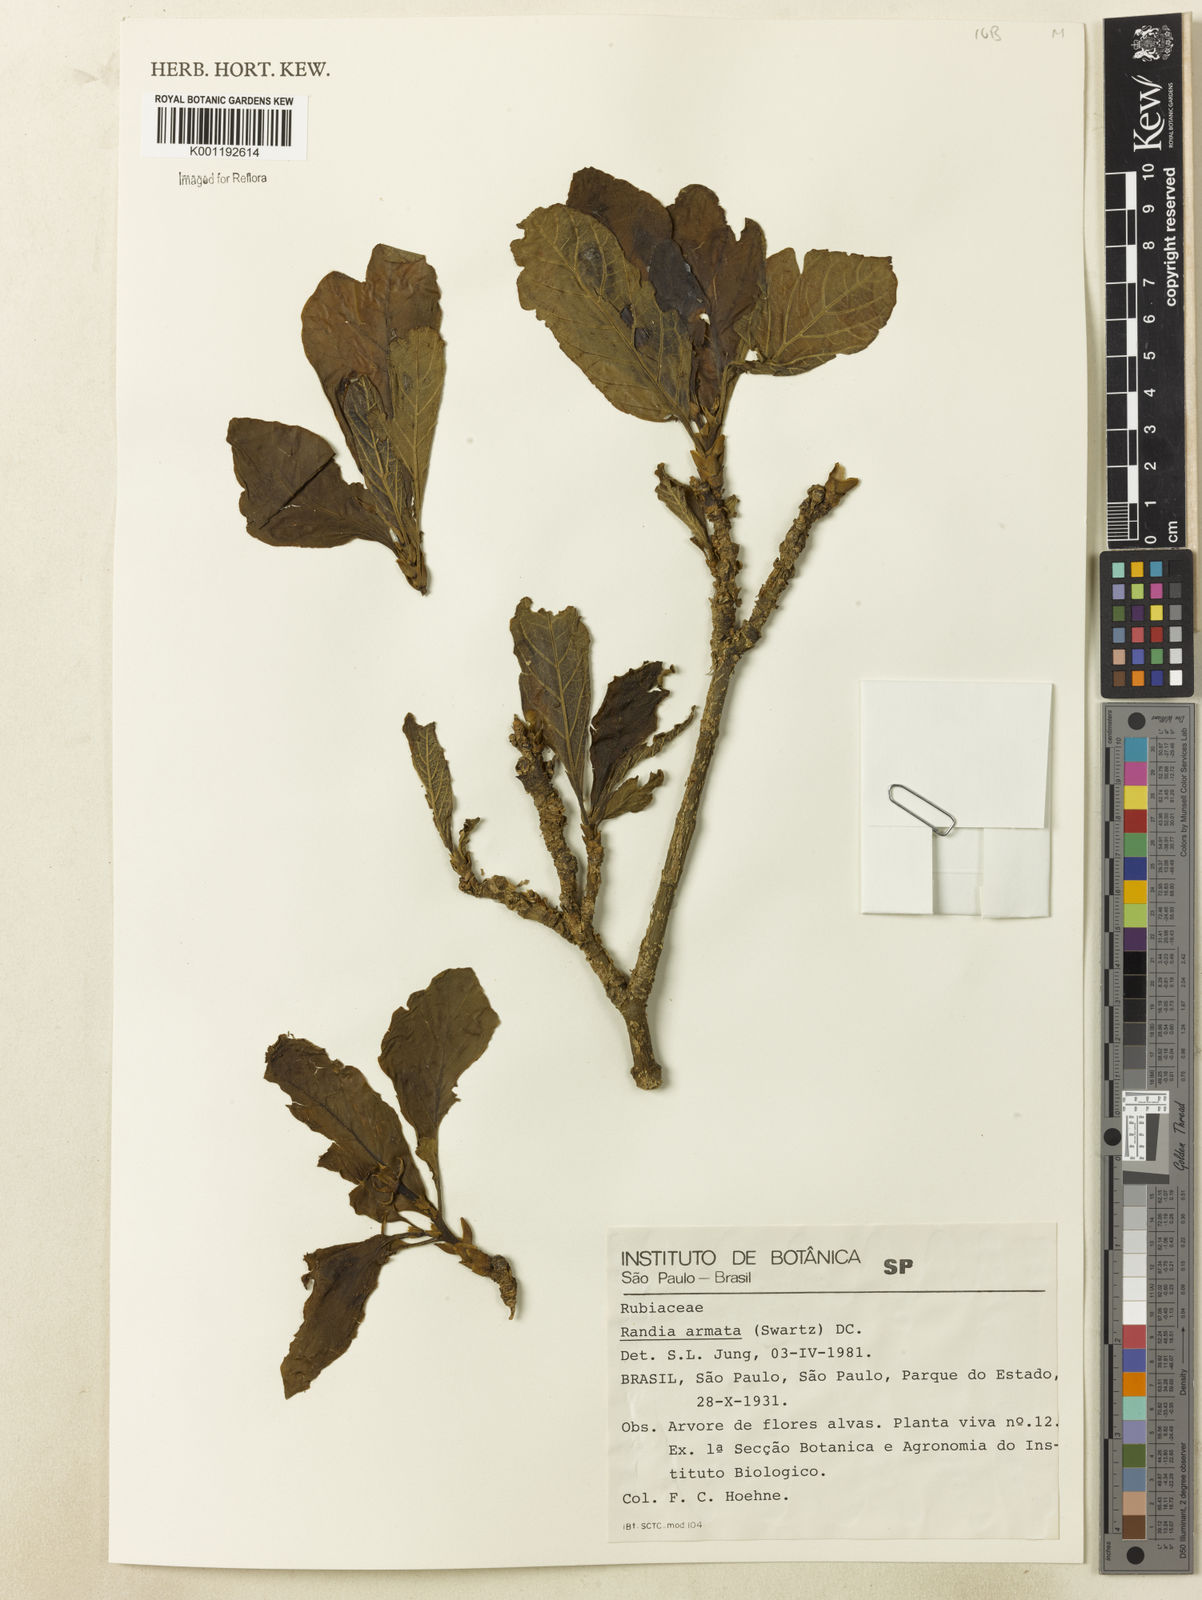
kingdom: Plantae
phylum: Tracheophyta
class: Magnoliopsida
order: Gentianales
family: Rubiaceae
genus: Randia
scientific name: Randia armata
